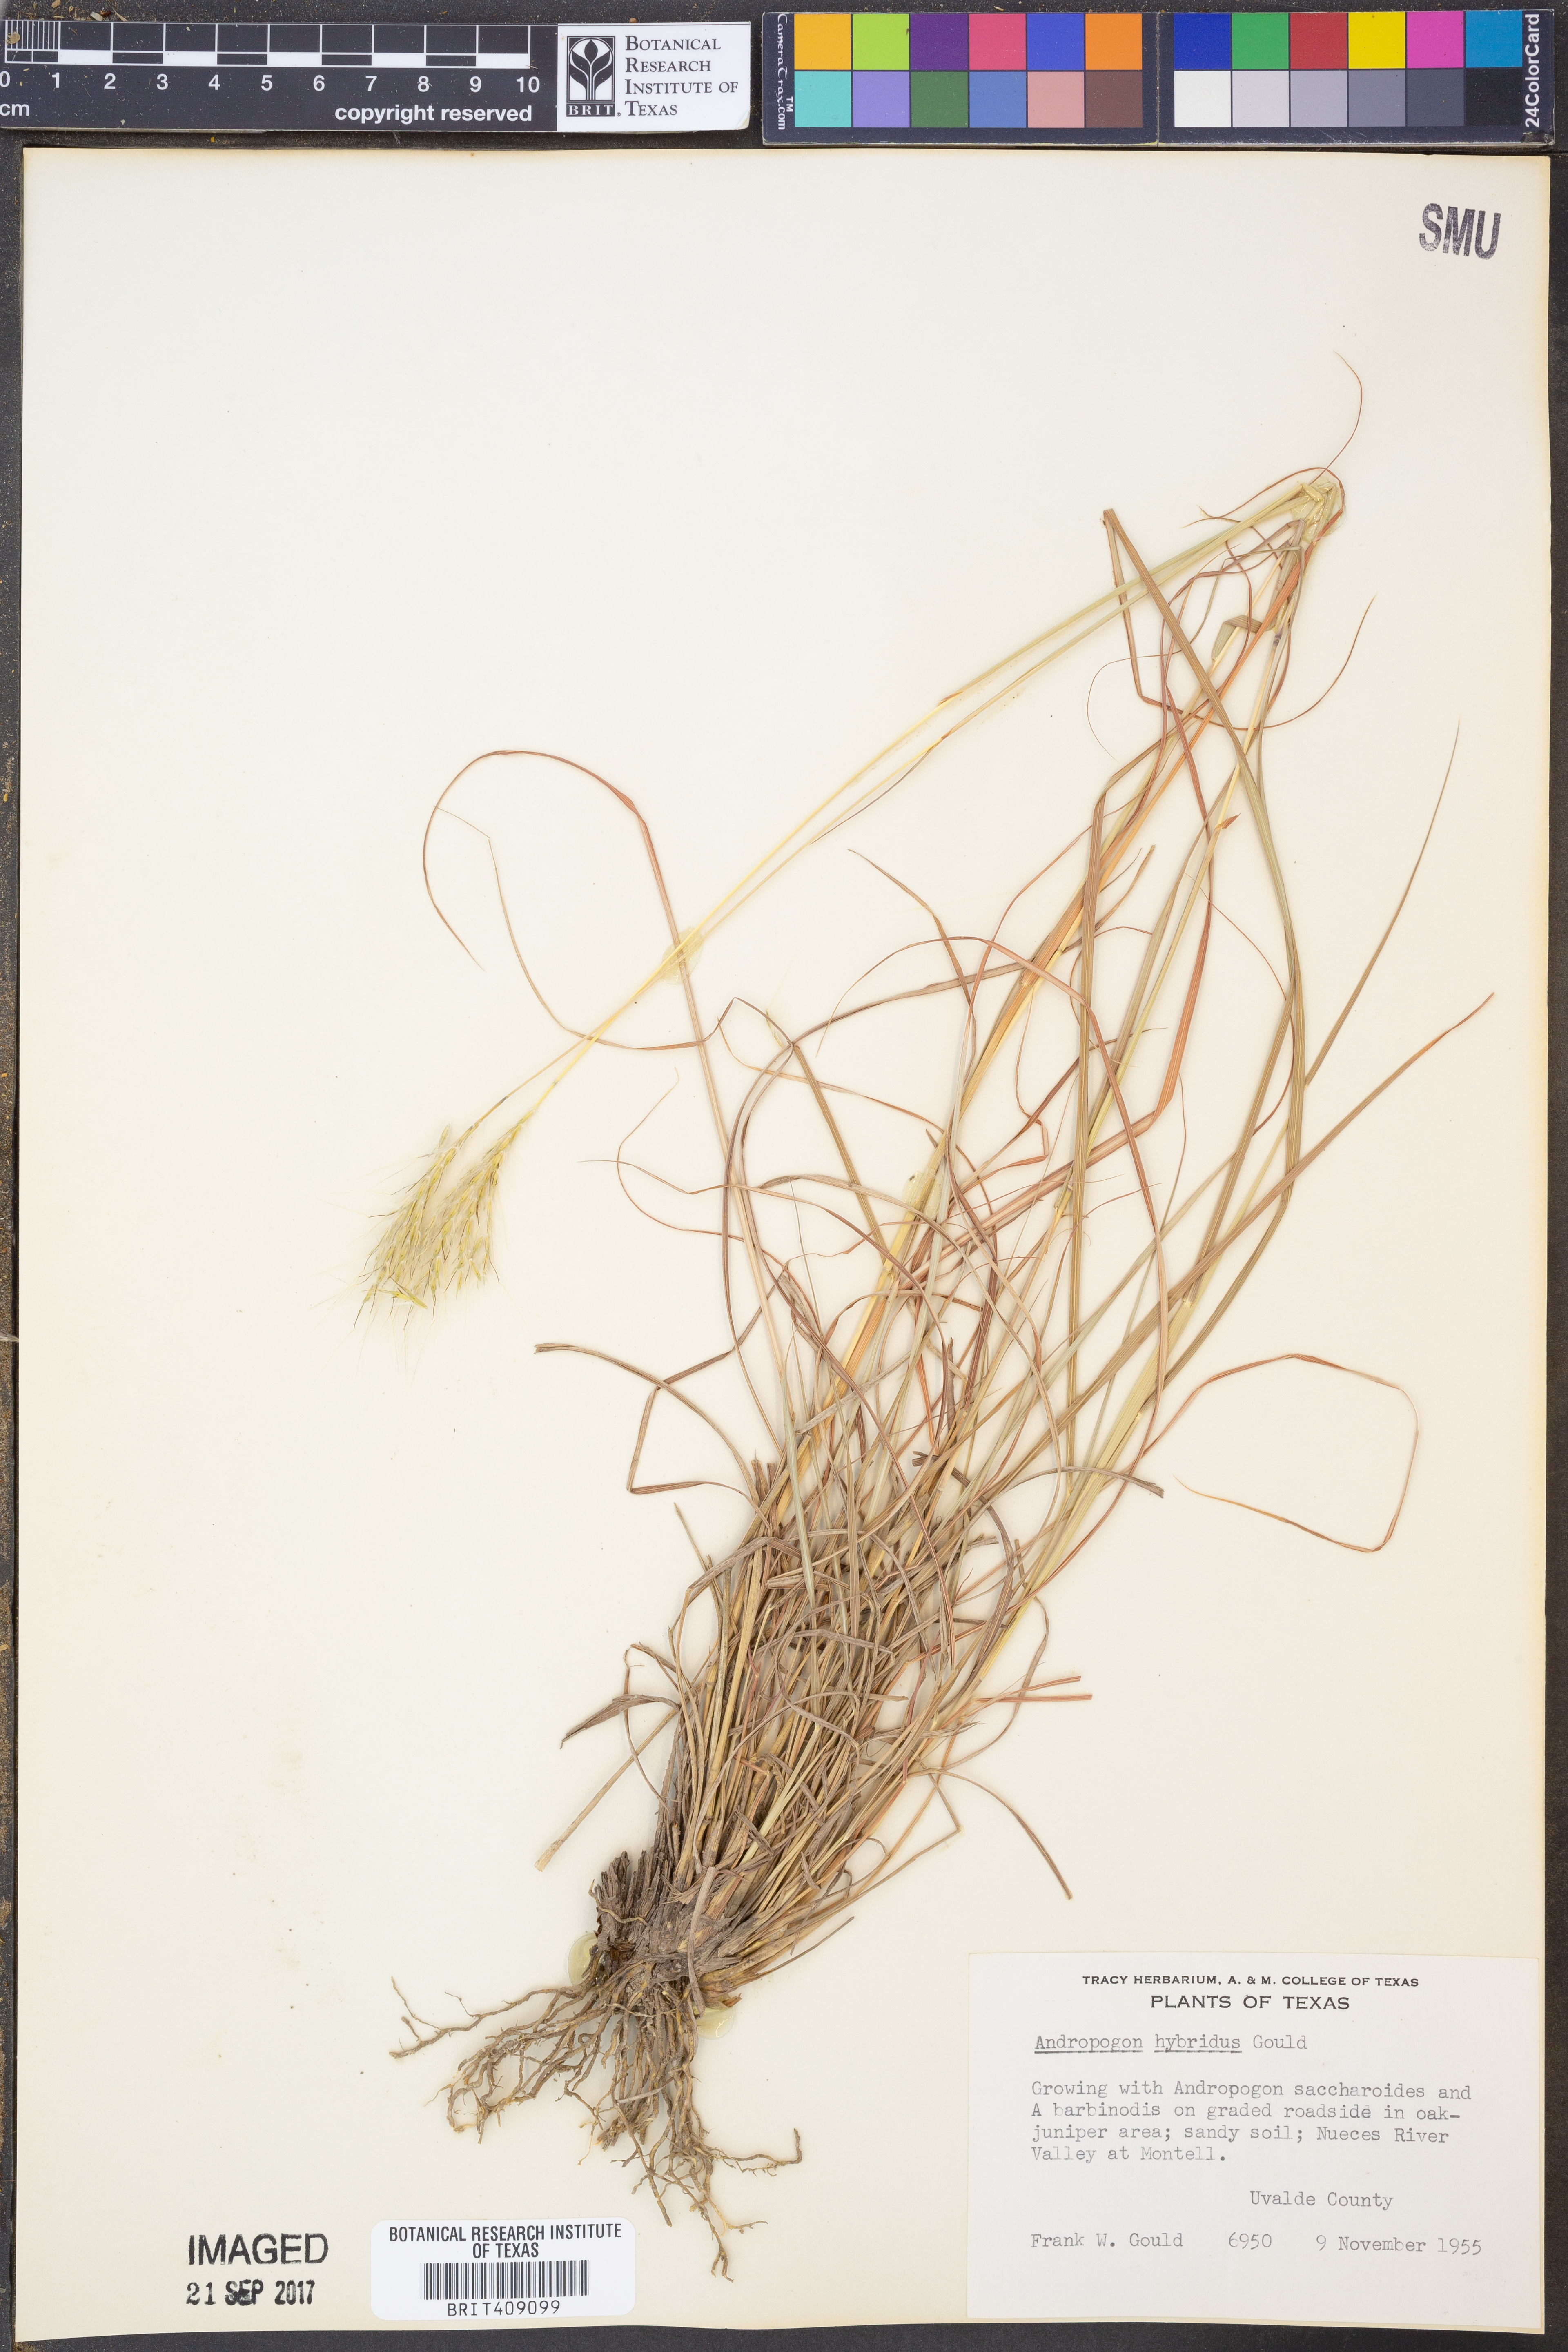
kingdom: Plantae
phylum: Tracheophyta
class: Liliopsida
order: Poales
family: Poaceae
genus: Bothriochloa
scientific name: Bothriochloa hybrida
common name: Hybrid bluestem
